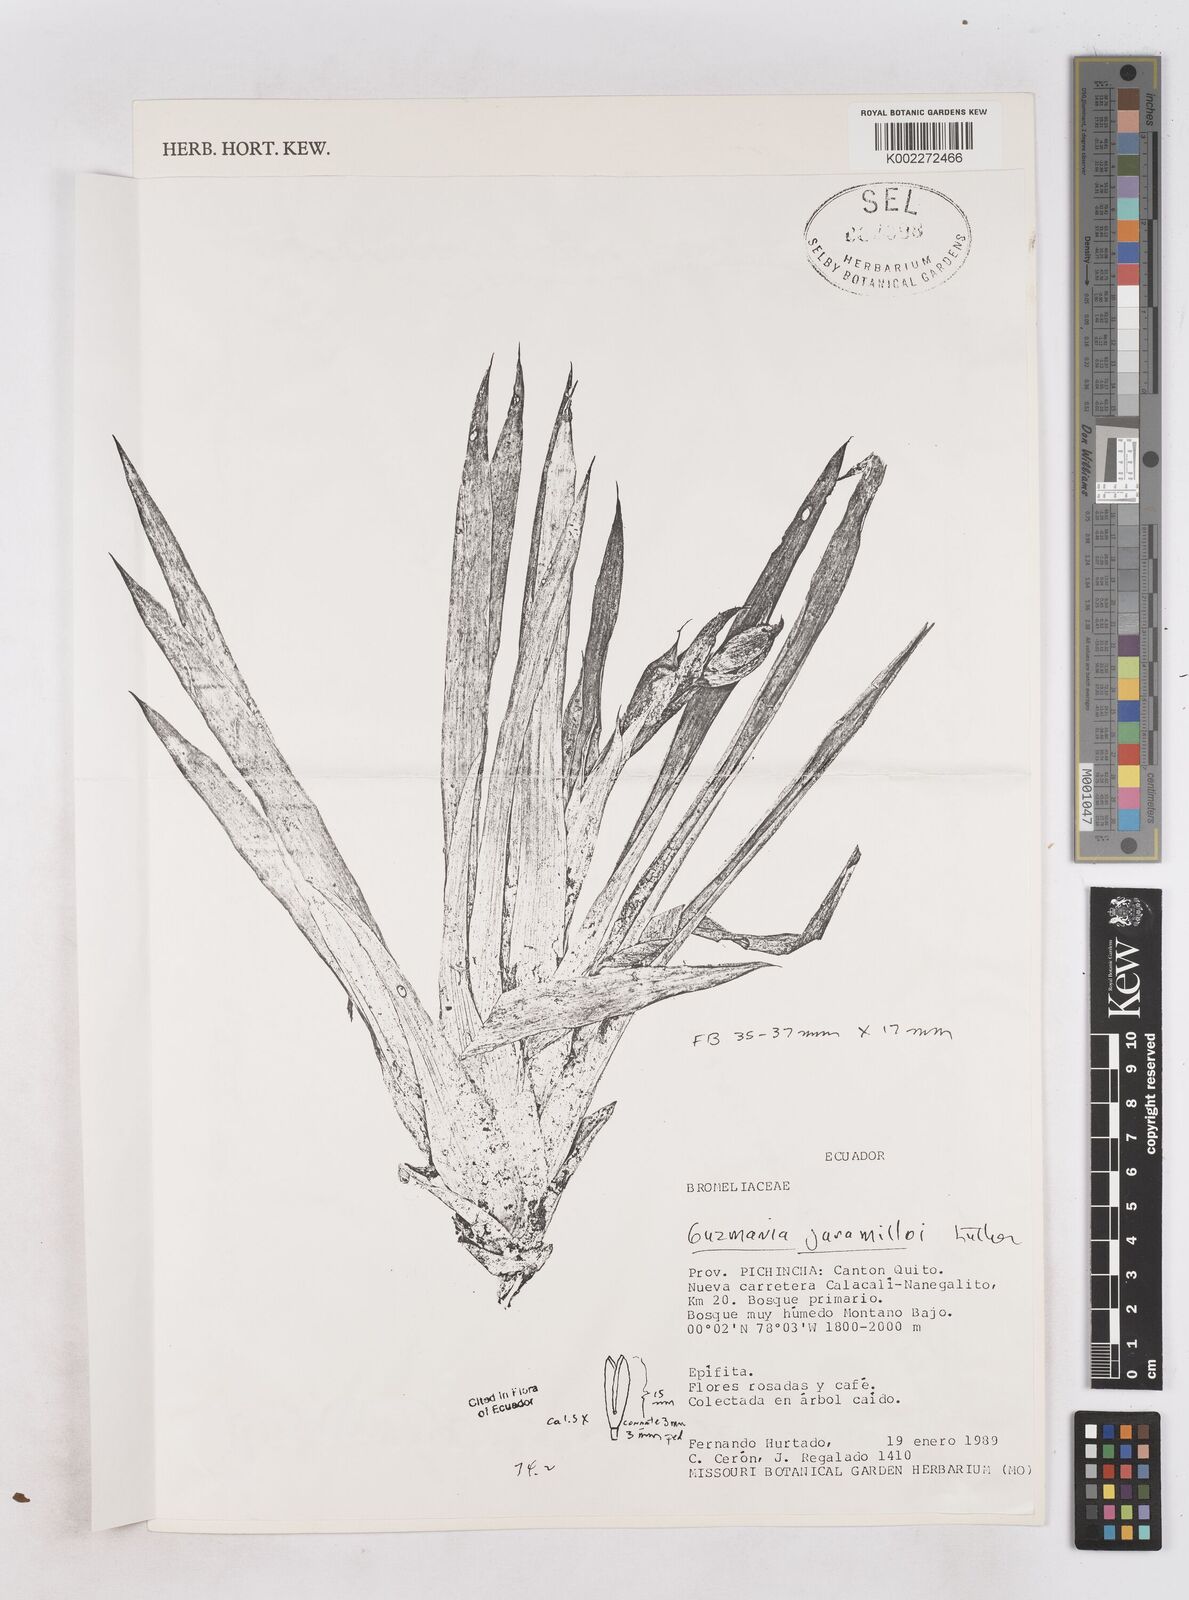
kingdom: Plantae
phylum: Tracheophyta
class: Liliopsida
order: Poales
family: Bromeliaceae
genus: Guzmania
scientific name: Guzmania jaramilloi
